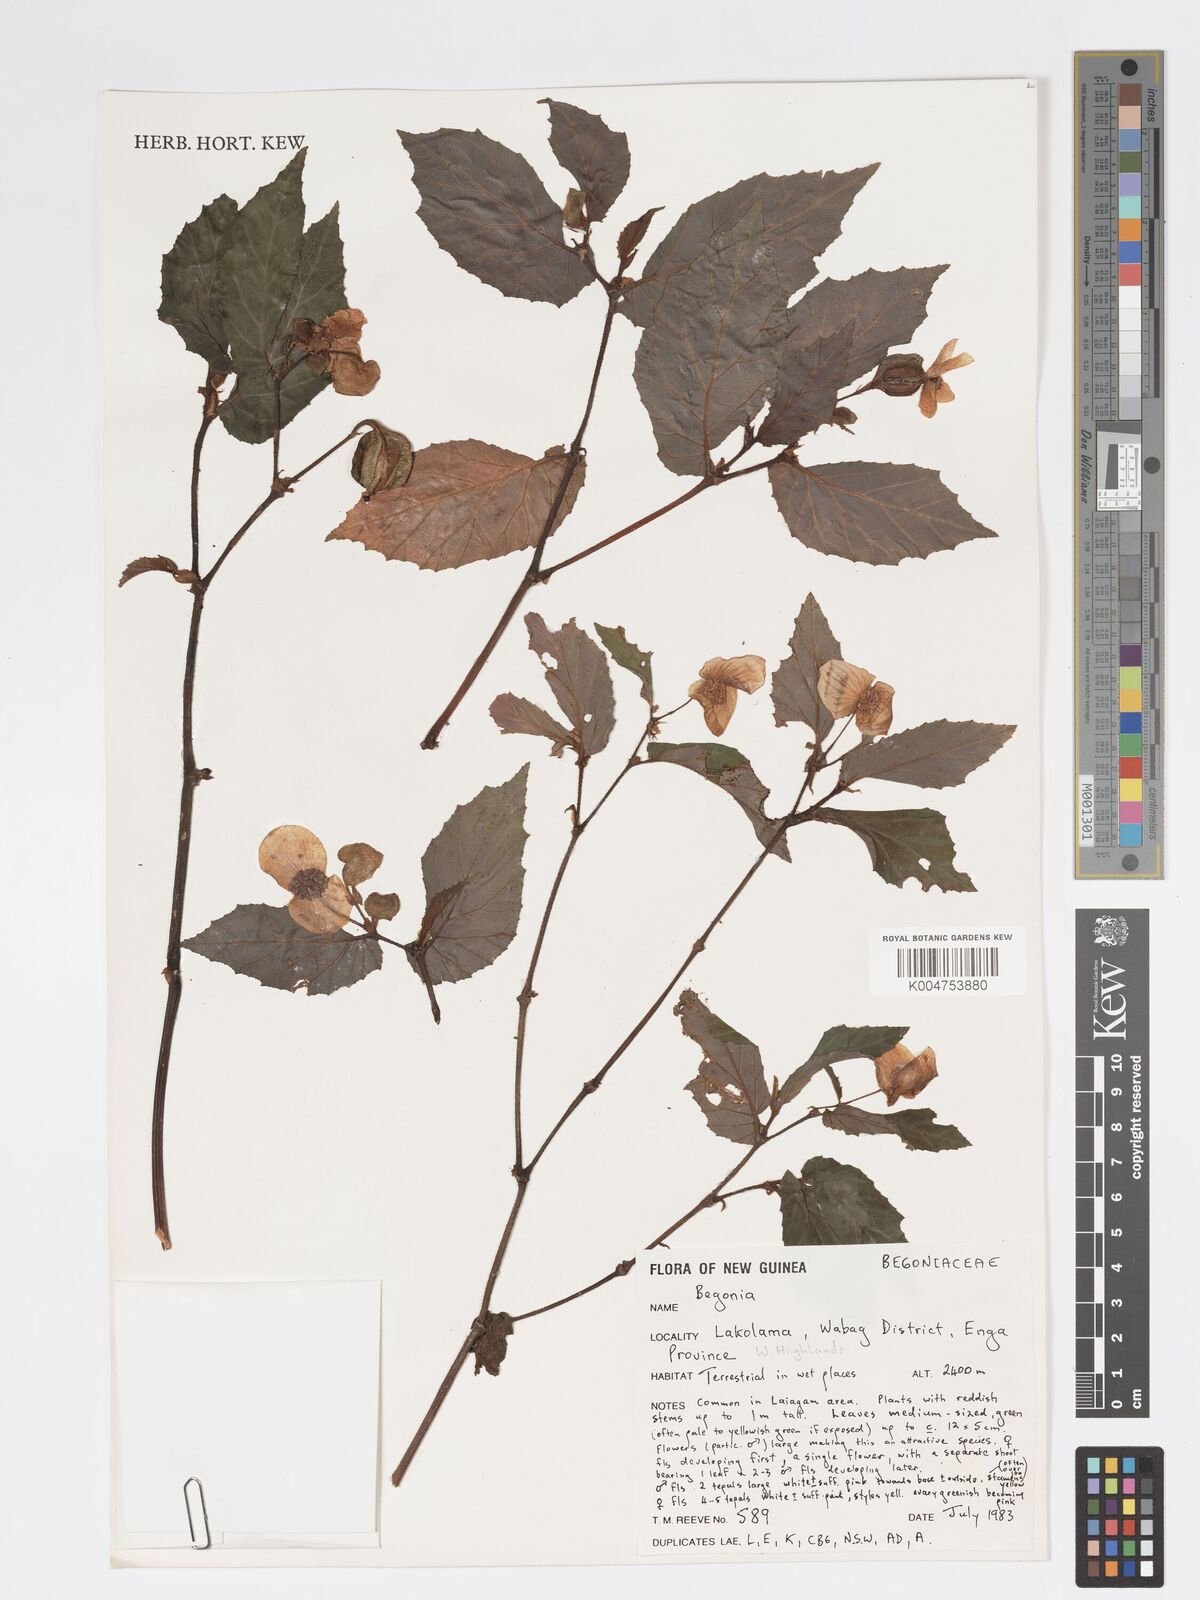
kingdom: Plantae
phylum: Tracheophyta
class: Magnoliopsida
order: Cucurbitales
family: Begoniaceae
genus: Begonia
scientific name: Begonia
